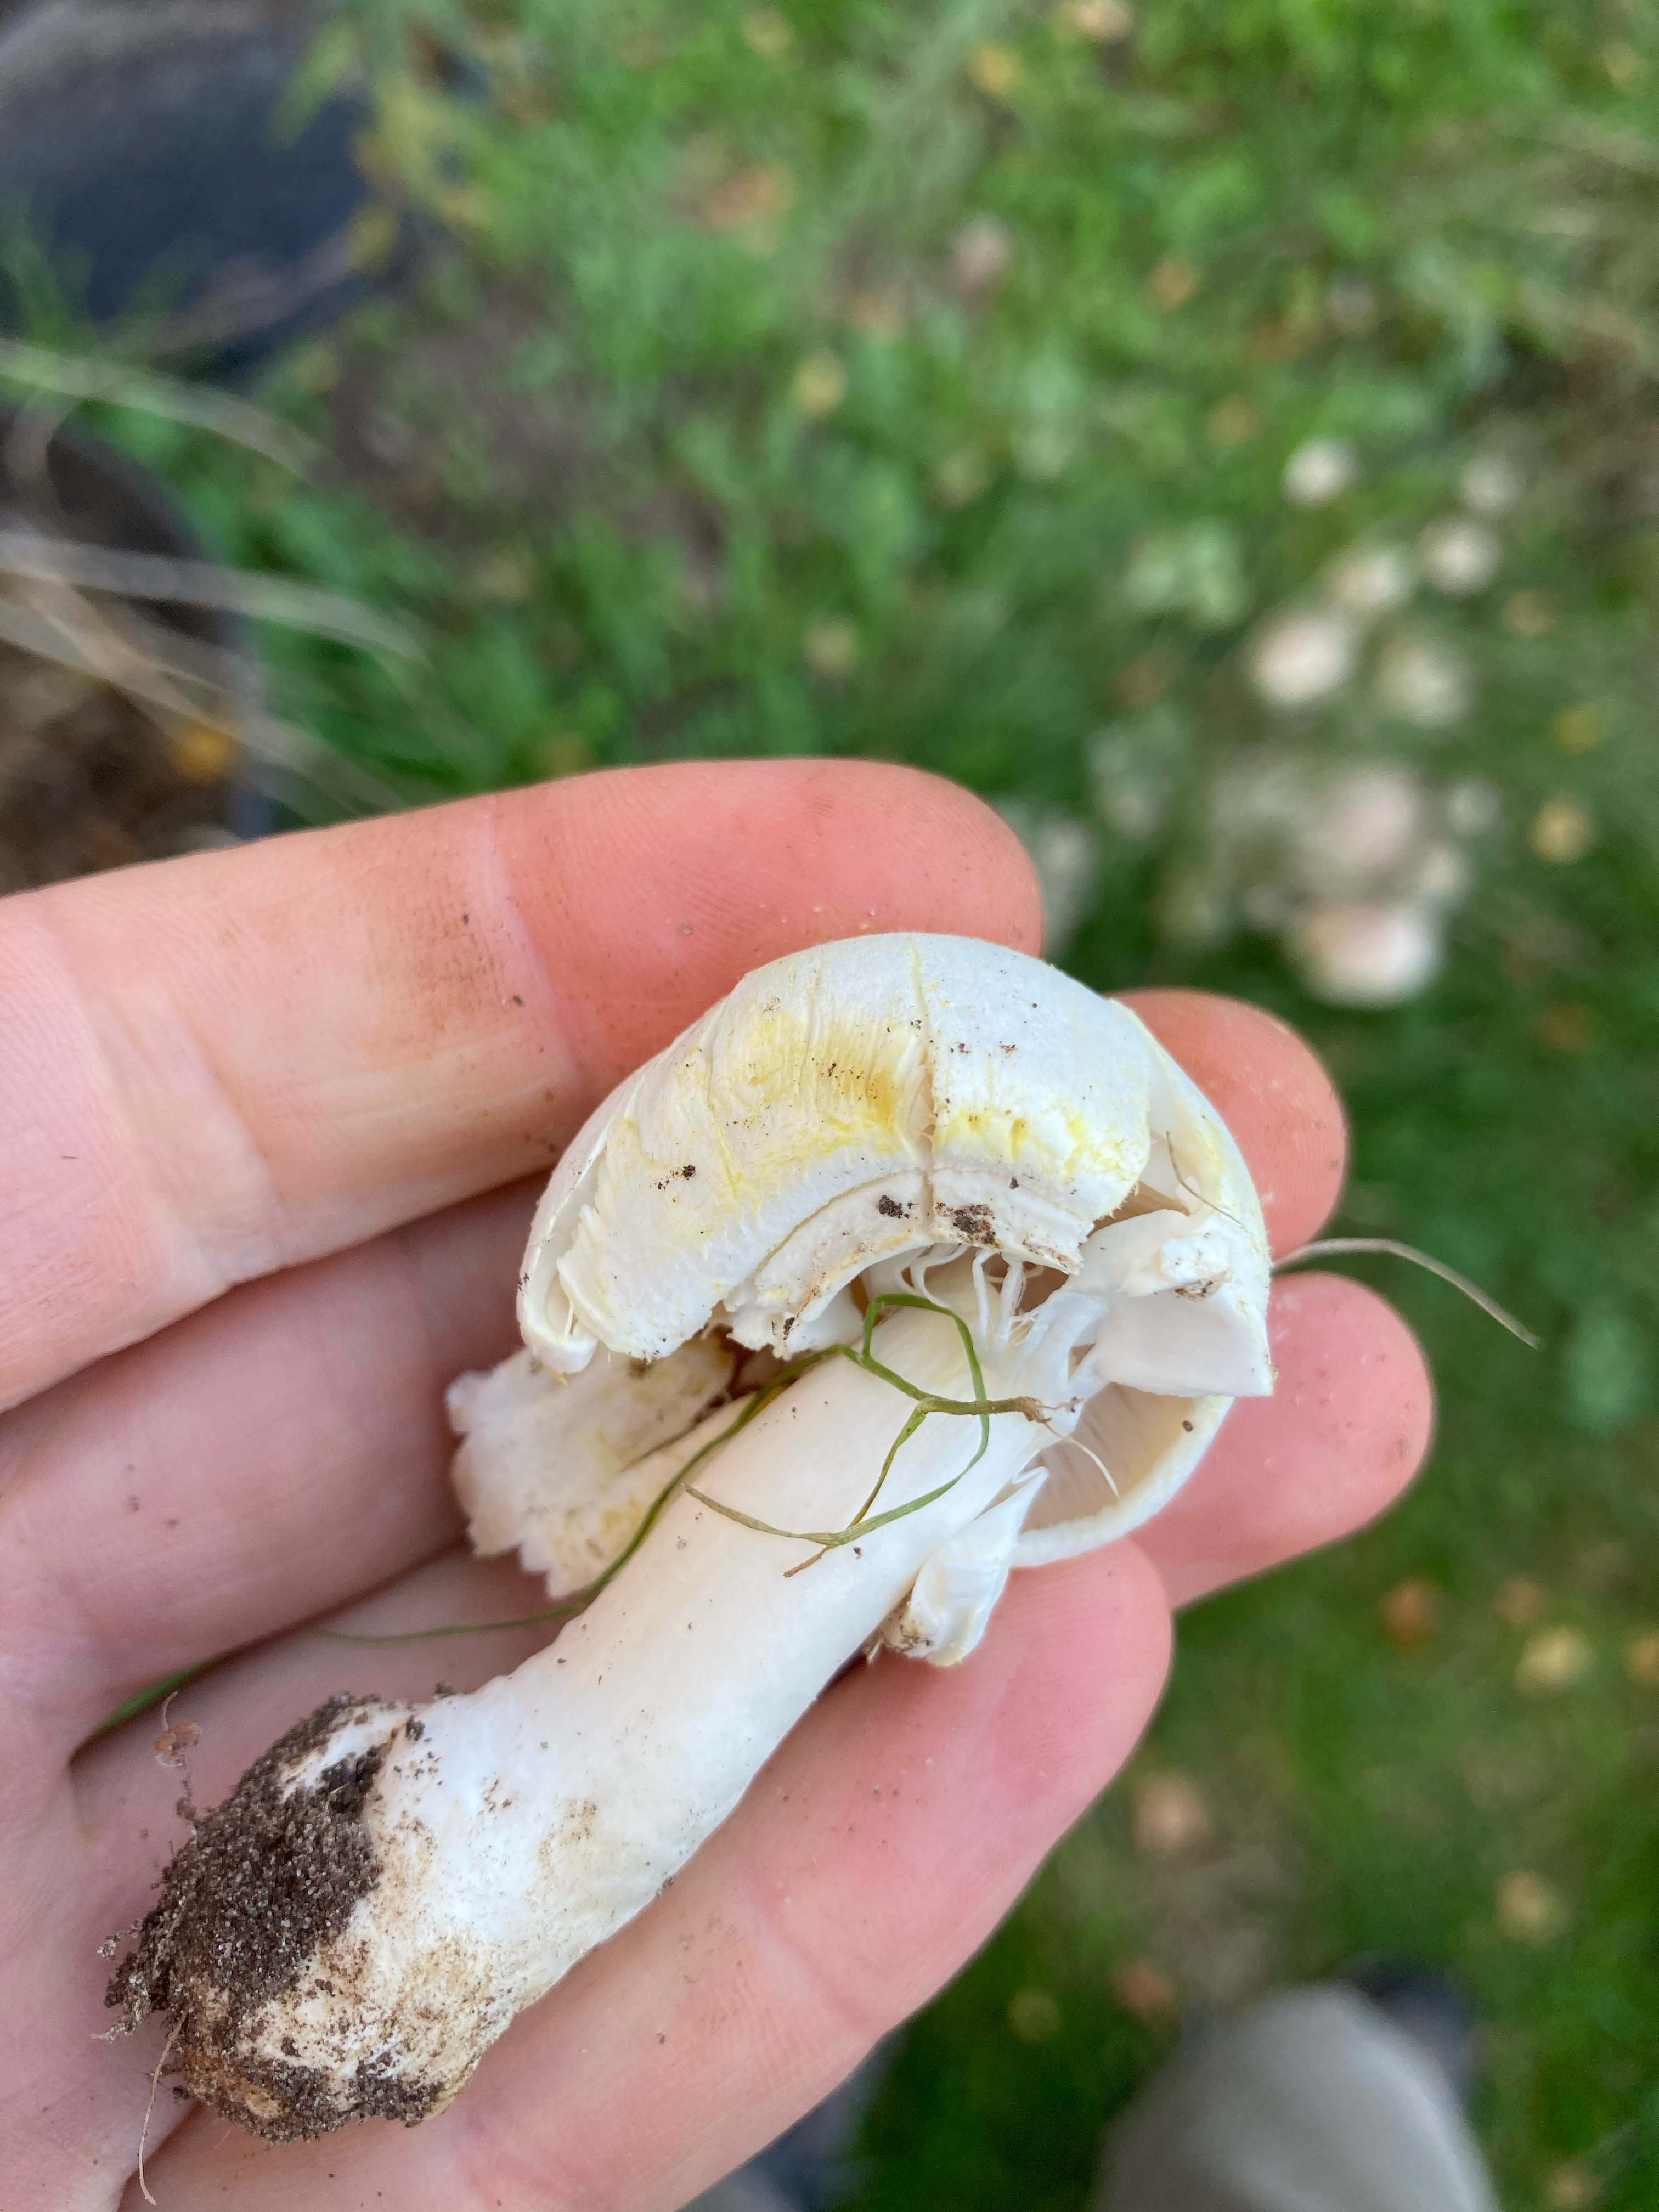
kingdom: Fungi
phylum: Basidiomycota
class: Agaricomycetes
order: Agaricales
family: Agaricaceae
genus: Agaricus
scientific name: Agaricus xanthodermus
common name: karbol-champignon
